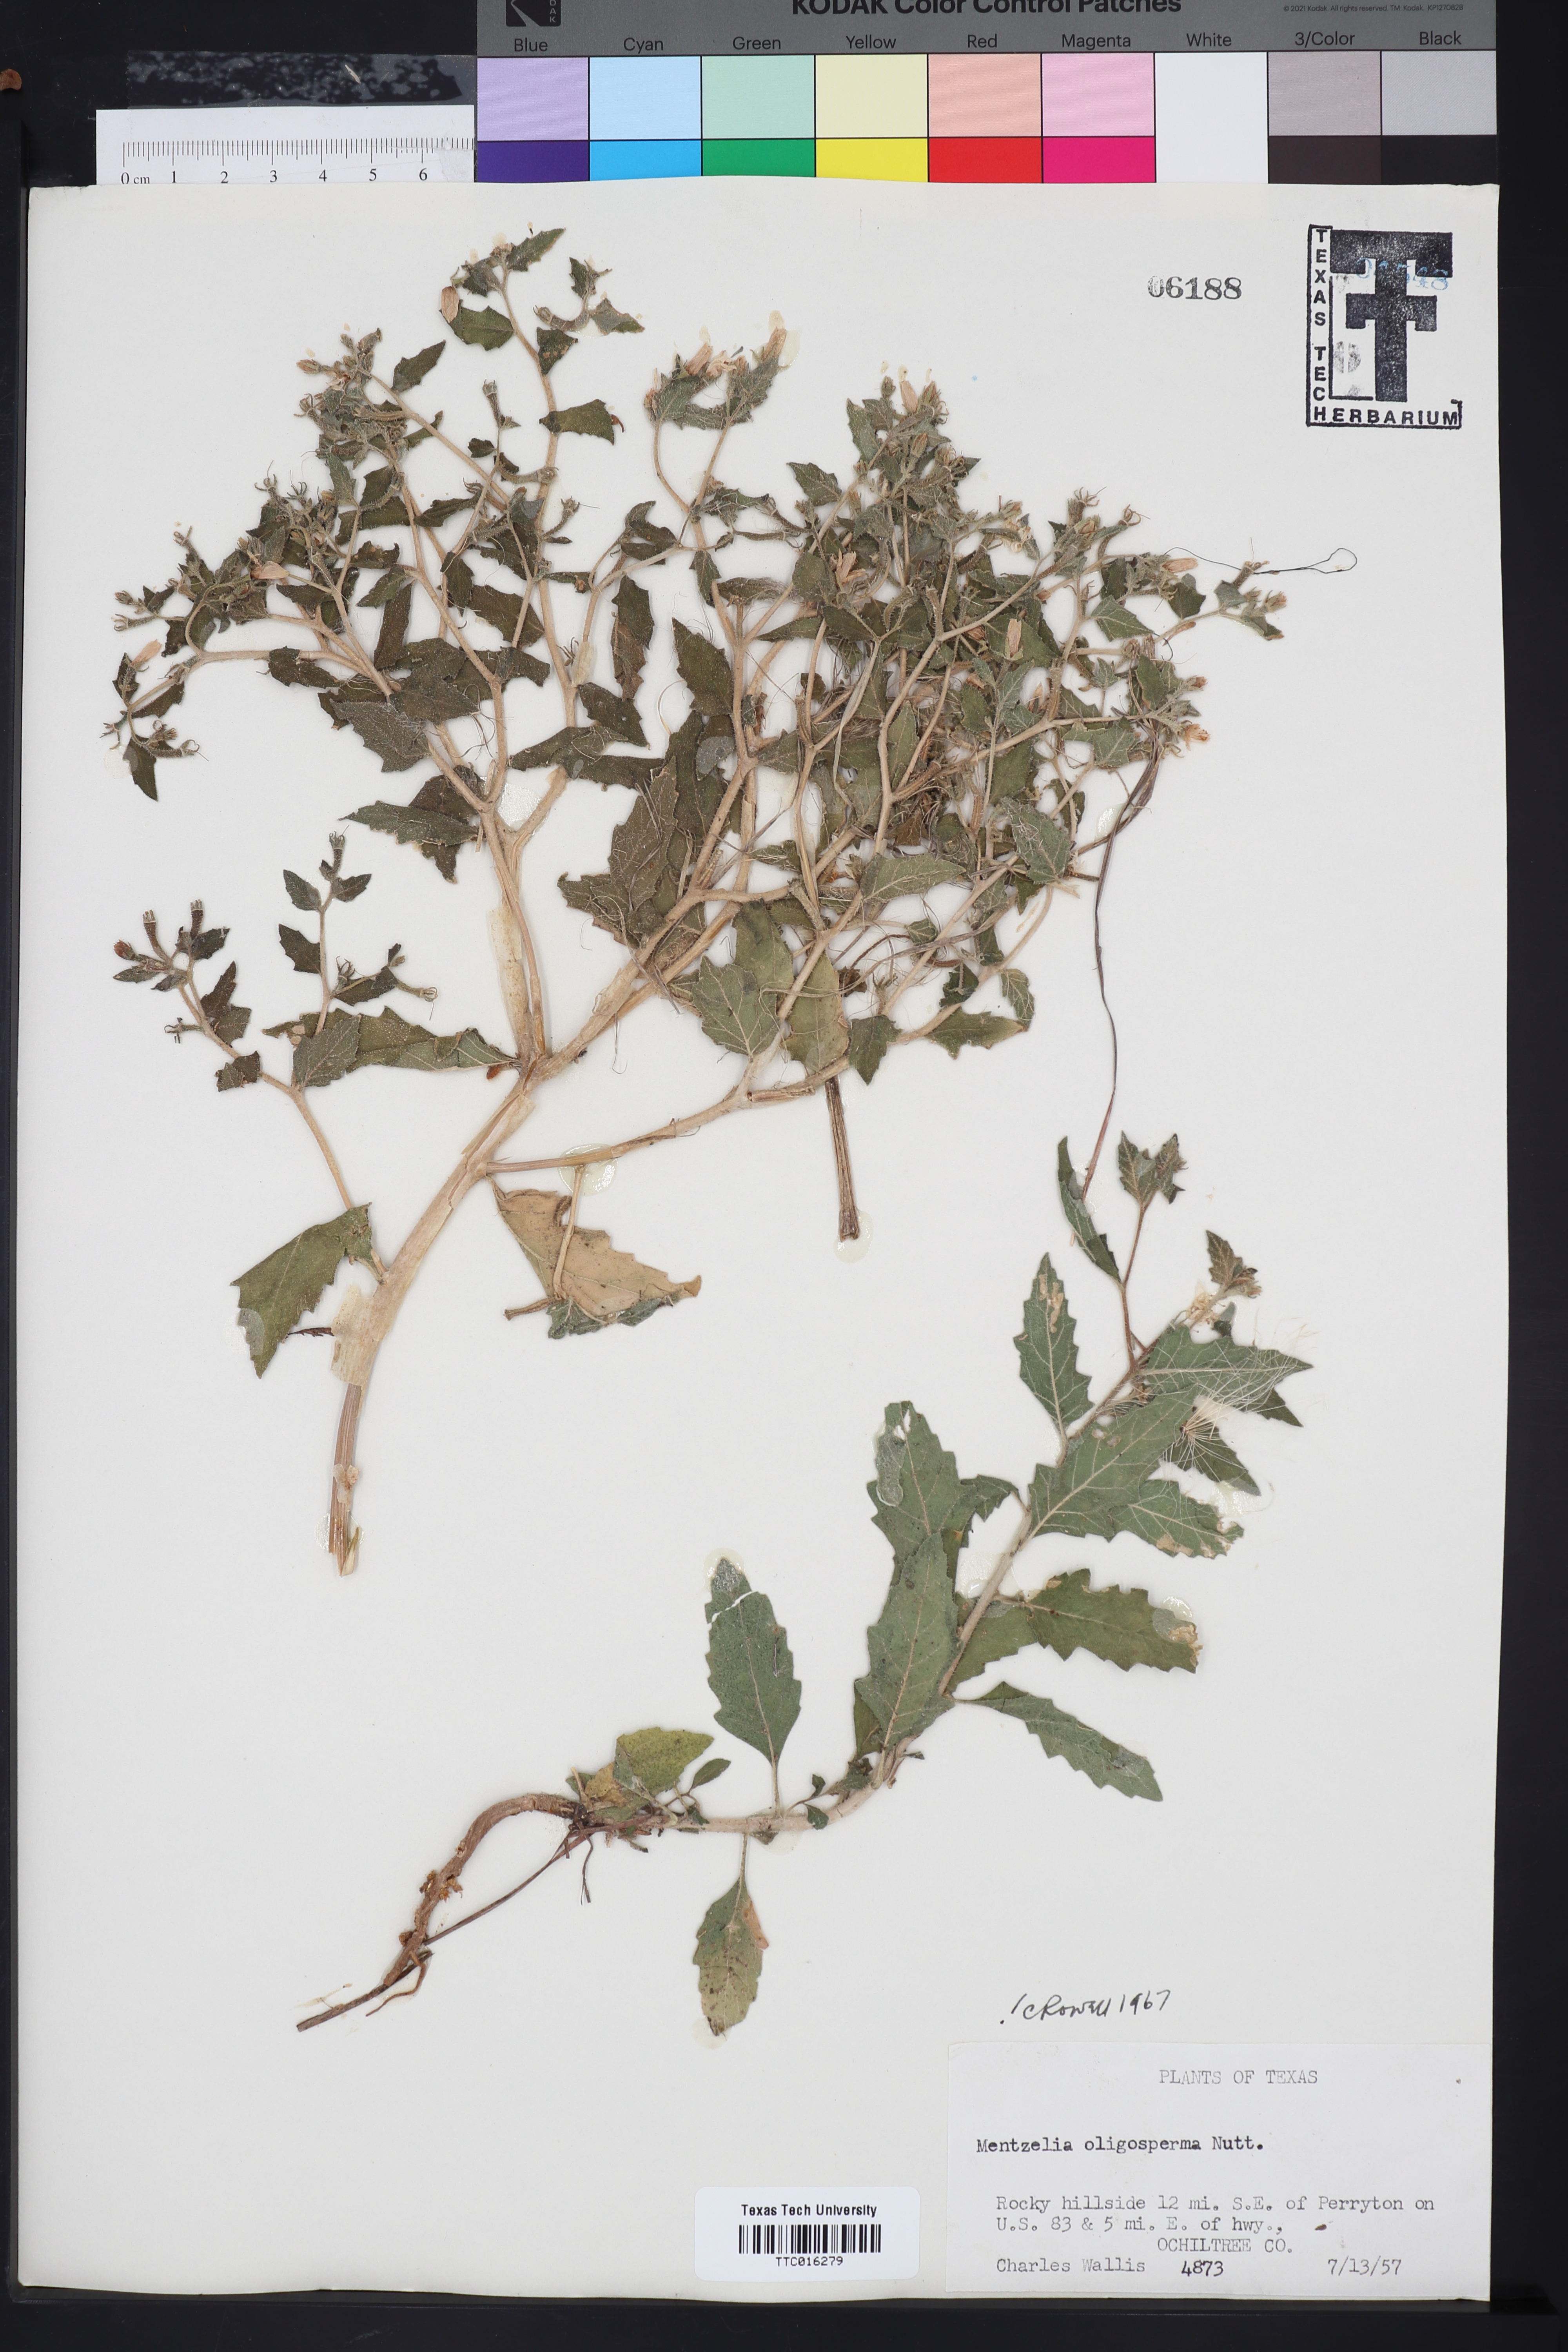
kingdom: Plantae
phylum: Tracheophyta
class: Magnoliopsida
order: Cornales
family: Loasaceae
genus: Mentzelia
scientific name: Mentzelia oligosperma
